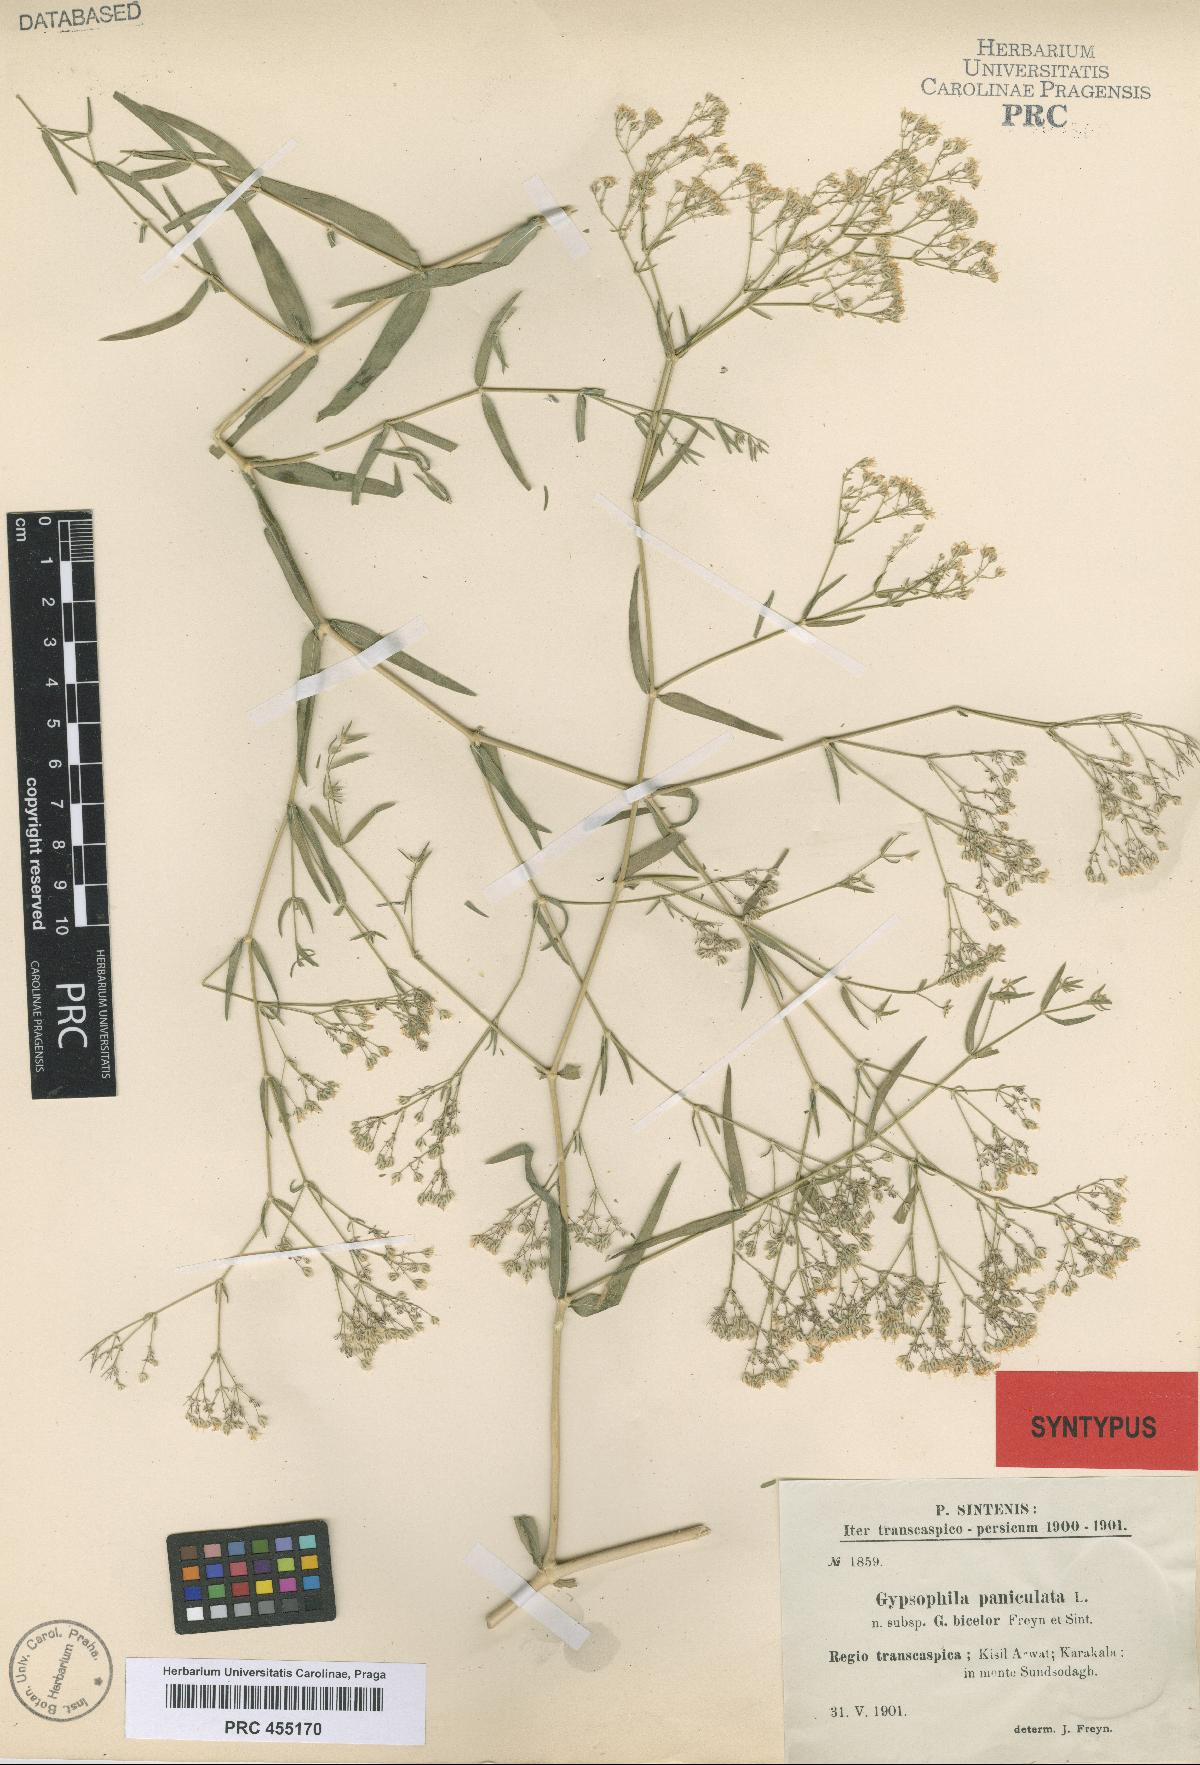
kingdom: Plantae
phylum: Tracheophyta
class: Magnoliopsida
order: Caryophyllales
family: Caryophyllaceae
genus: Gypsophila
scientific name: Gypsophila bicolor
